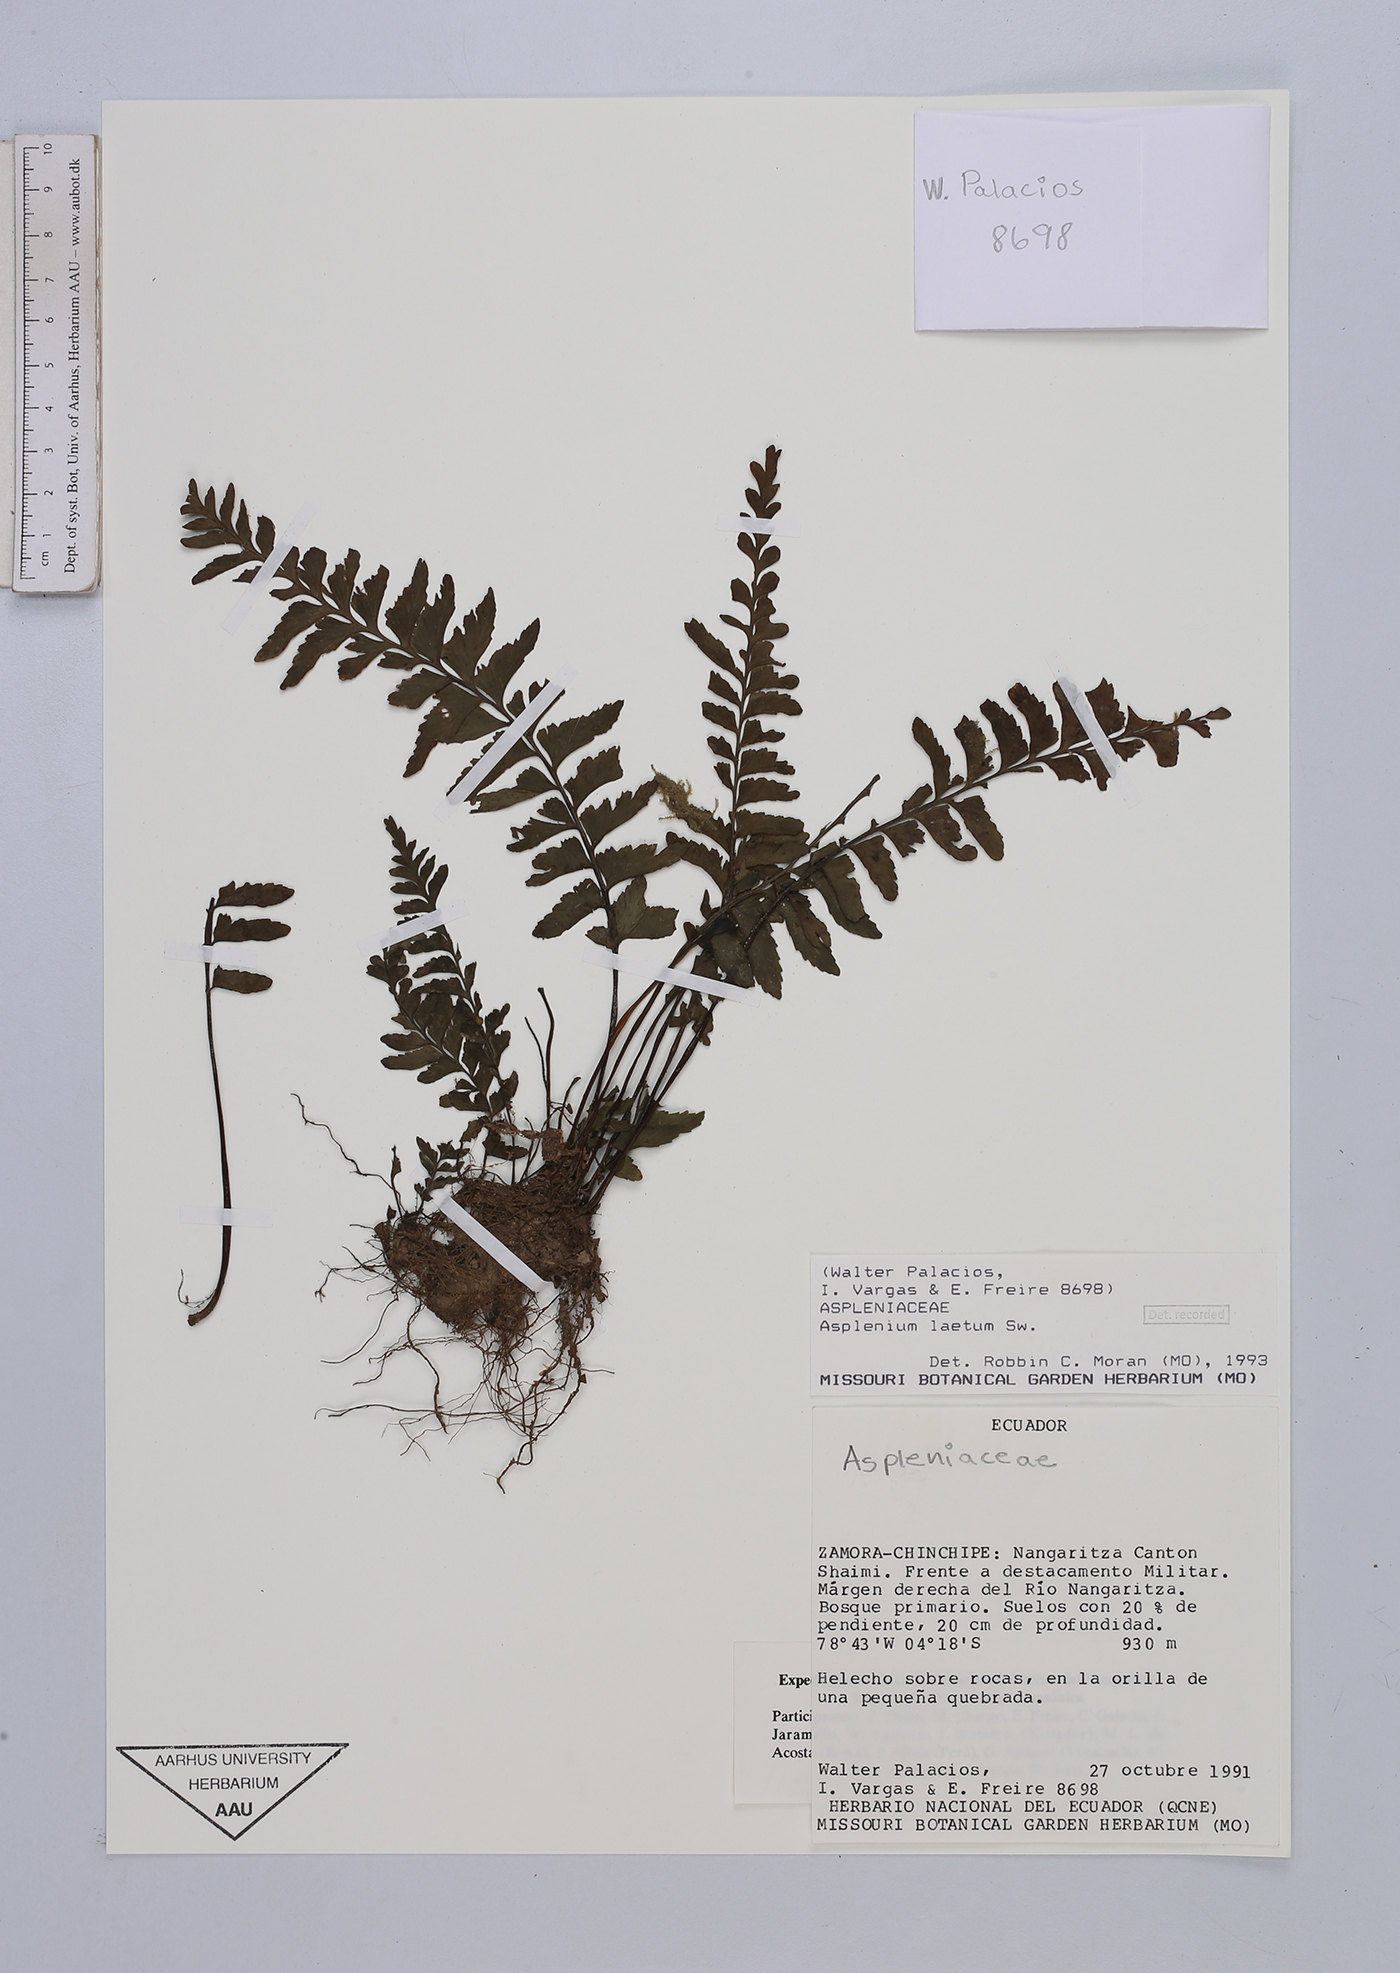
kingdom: Plantae
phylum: Tracheophyta
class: Polypodiopsida
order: Polypodiales
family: Aspleniaceae
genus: Hymenasplenium
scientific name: Hymenasplenium laetum
